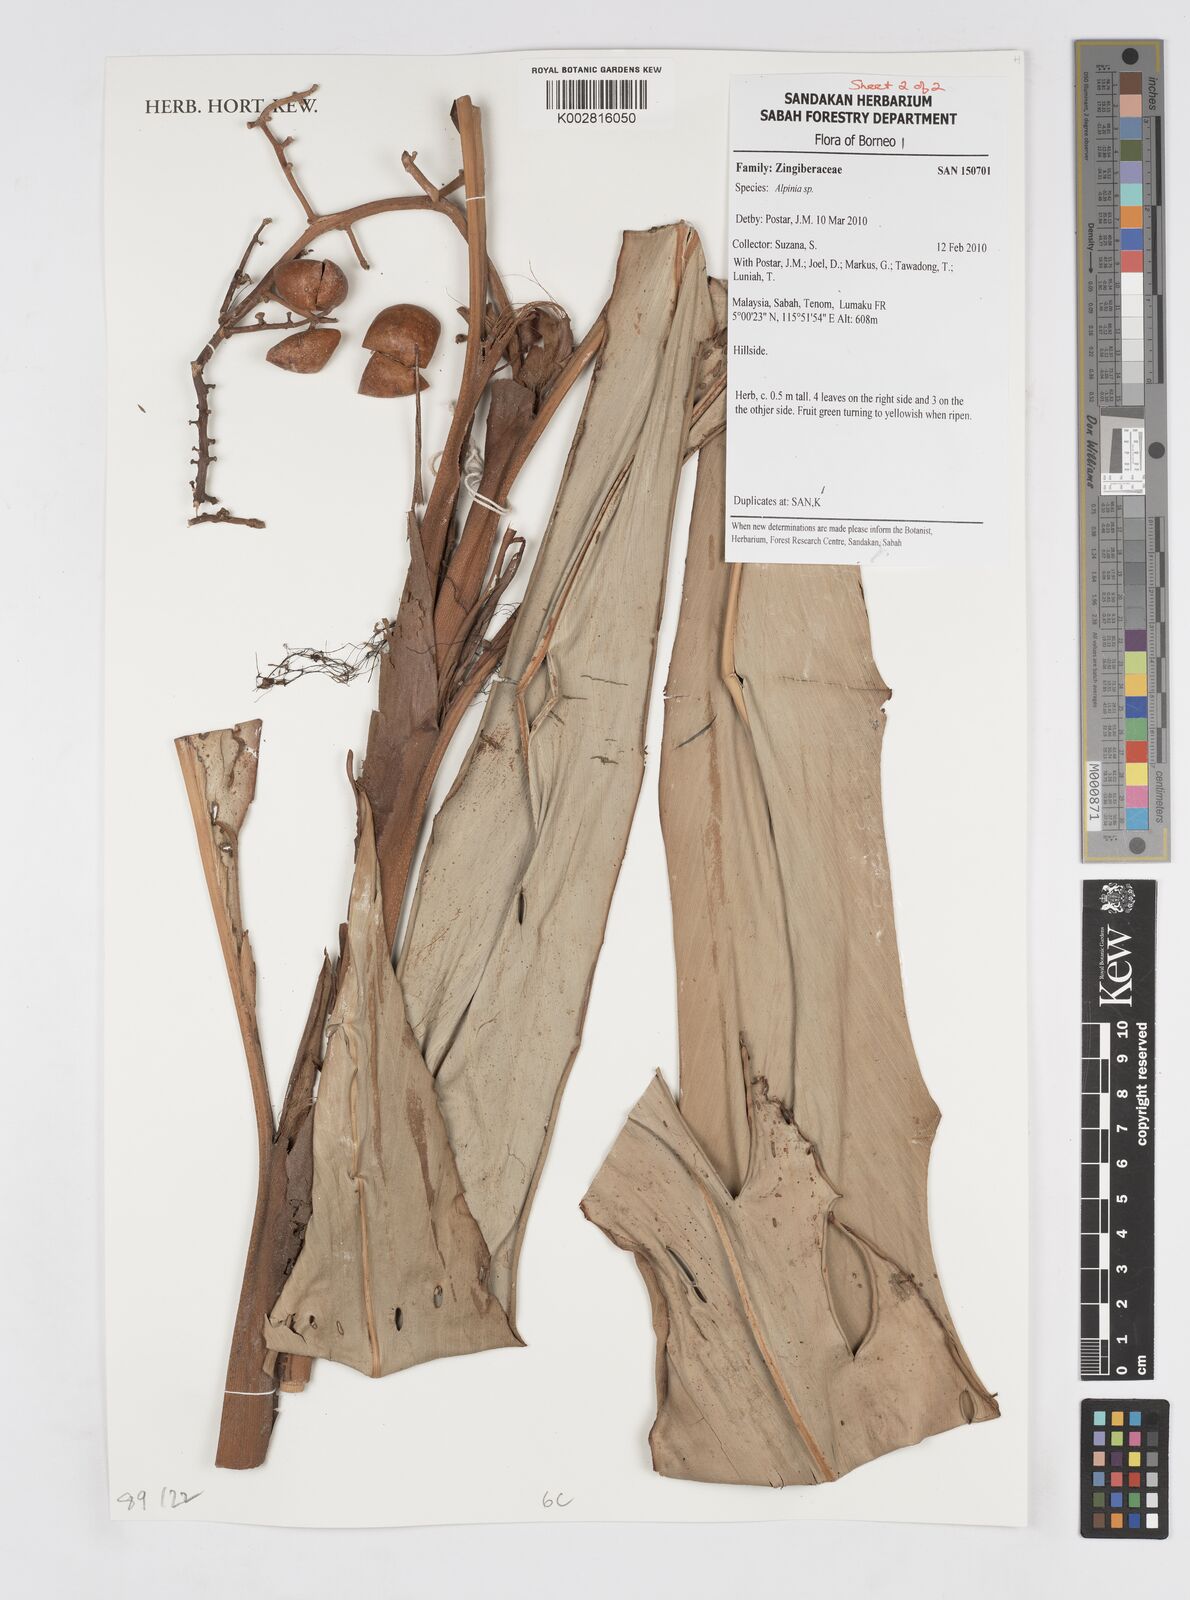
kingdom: Plantae
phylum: Tracheophyta
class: Liliopsida
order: Zingiberales
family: Zingiberaceae
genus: Alpinia
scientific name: Alpinia
